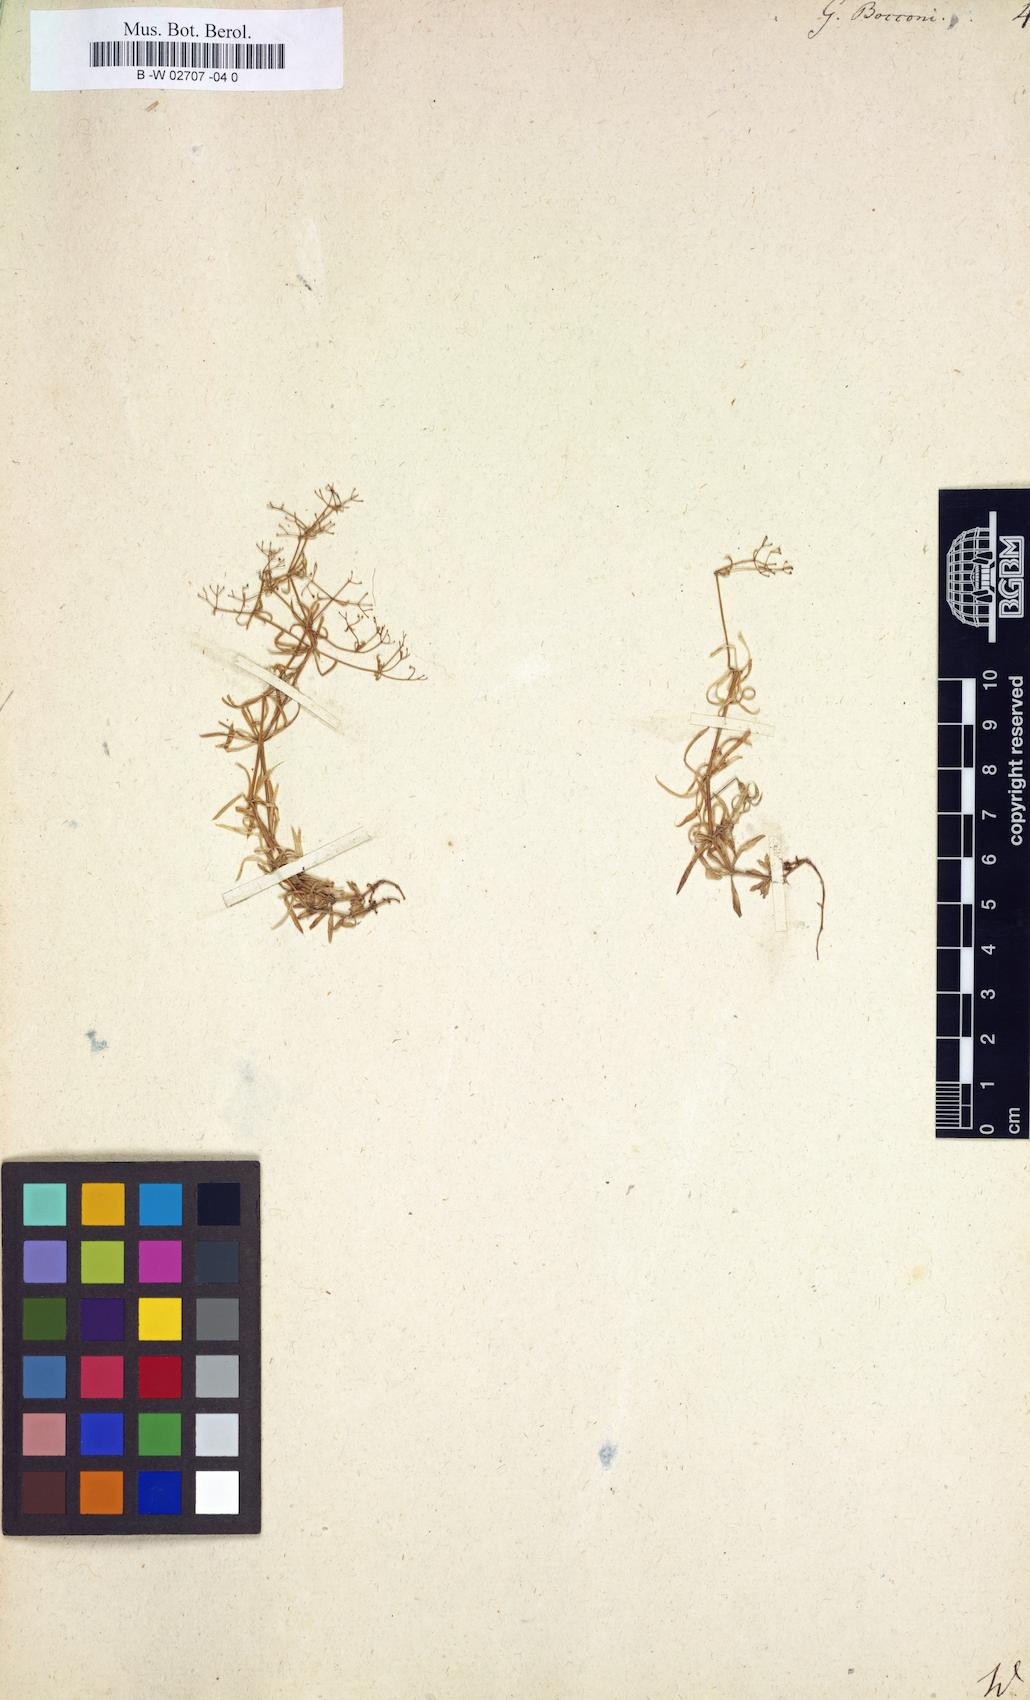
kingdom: Plantae
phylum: Tracheophyta
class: Magnoliopsida
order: Gentianales
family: Rubiaceae
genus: Galium
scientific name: Galium
